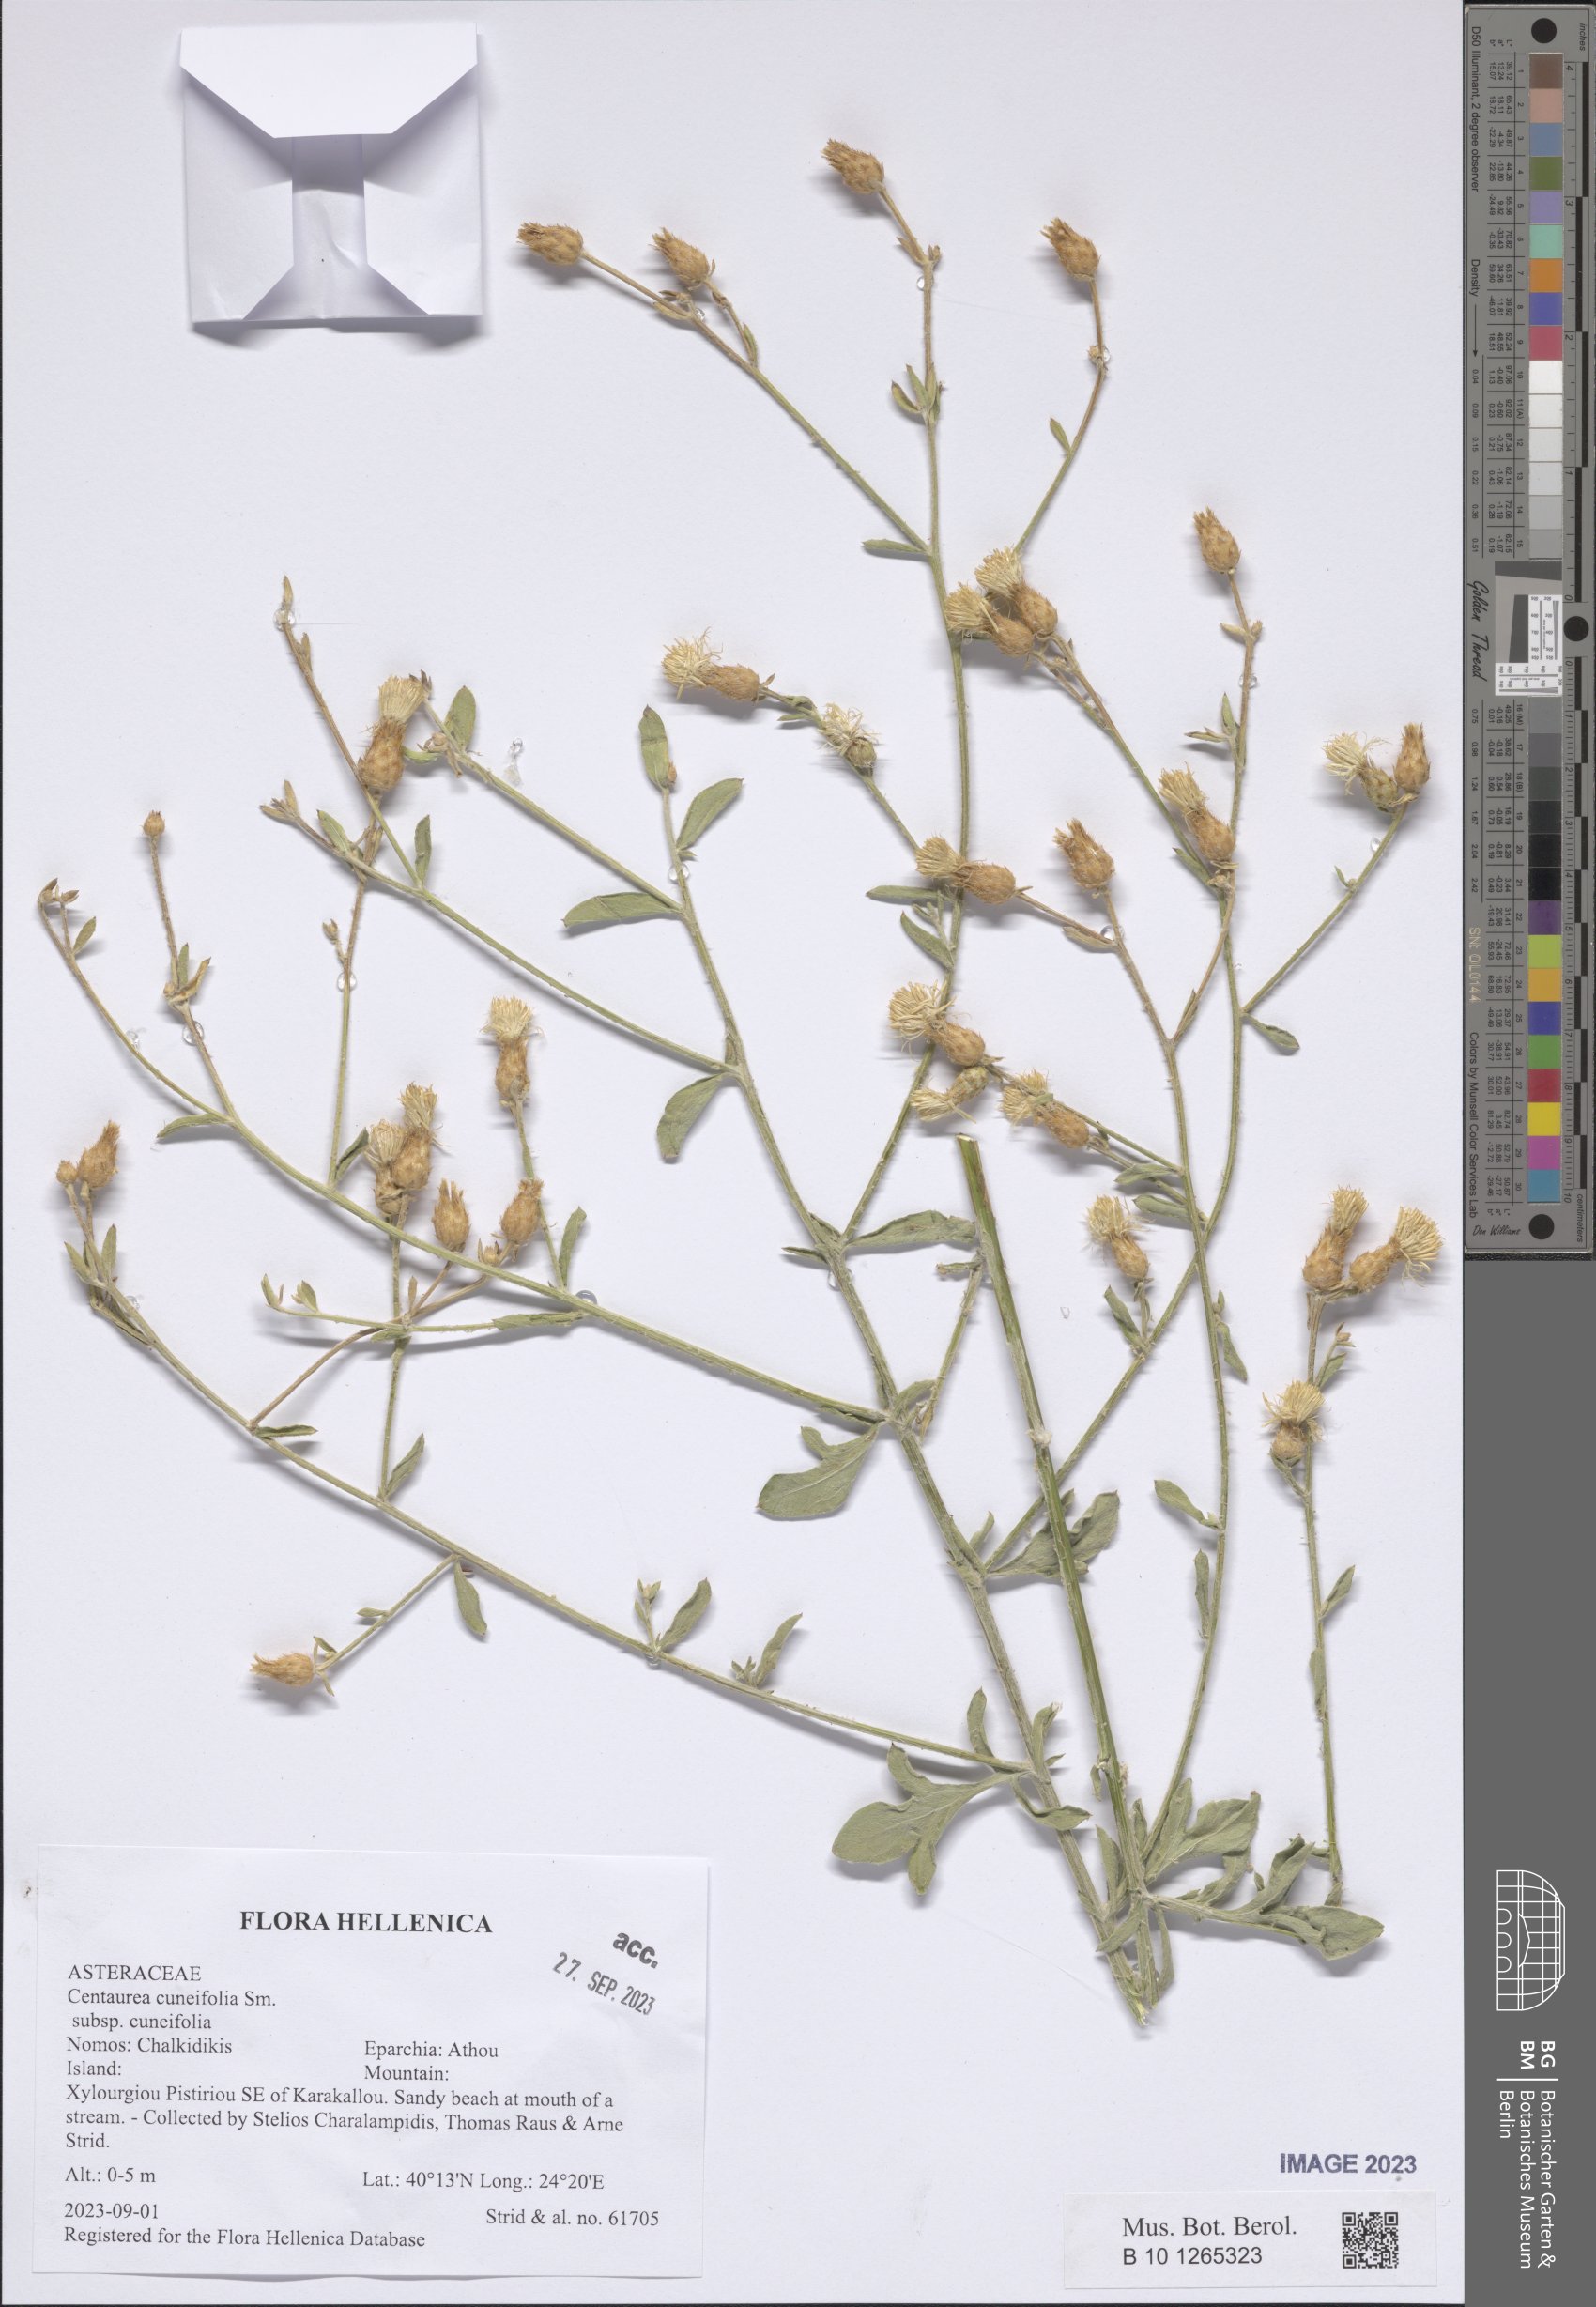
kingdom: Plantae
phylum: Tracheophyta
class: Magnoliopsida
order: Asterales
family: Asteraceae
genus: Centaurea
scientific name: Centaurea cuneifolia
